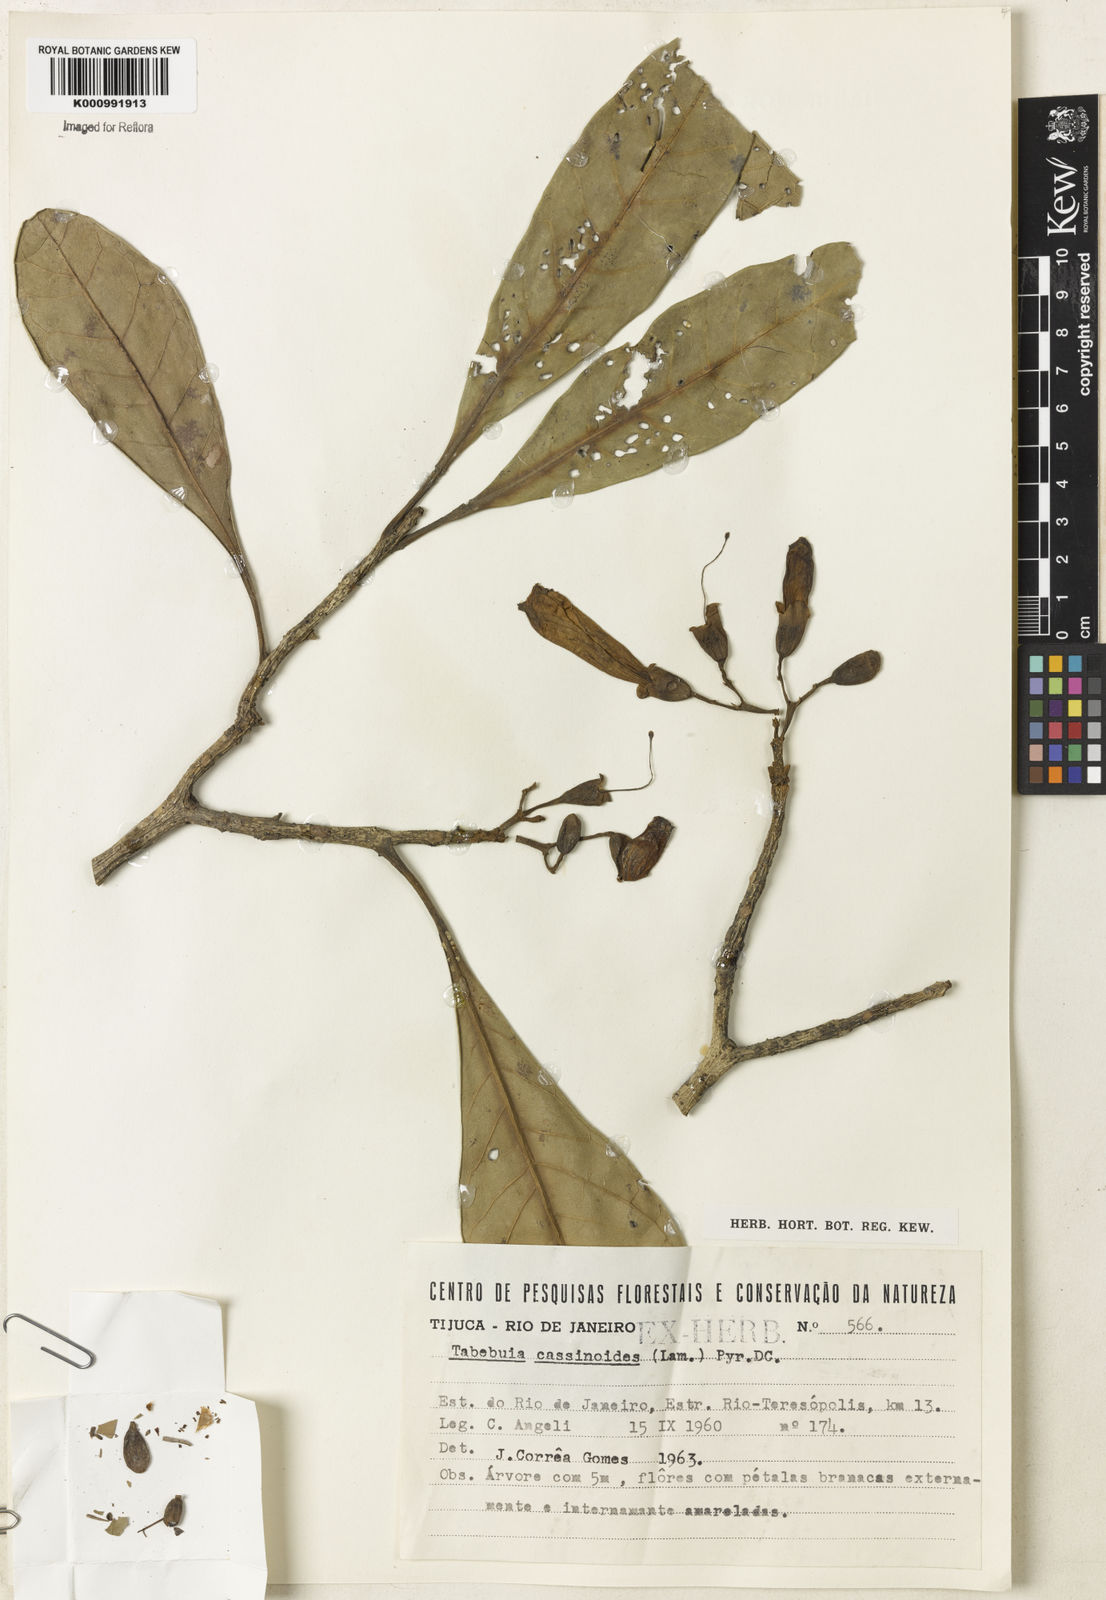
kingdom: Plantae
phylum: Tracheophyta
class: Magnoliopsida
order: Lamiales
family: Bignoniaceae
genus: Tabebuia
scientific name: Tabebuia cassinoides
